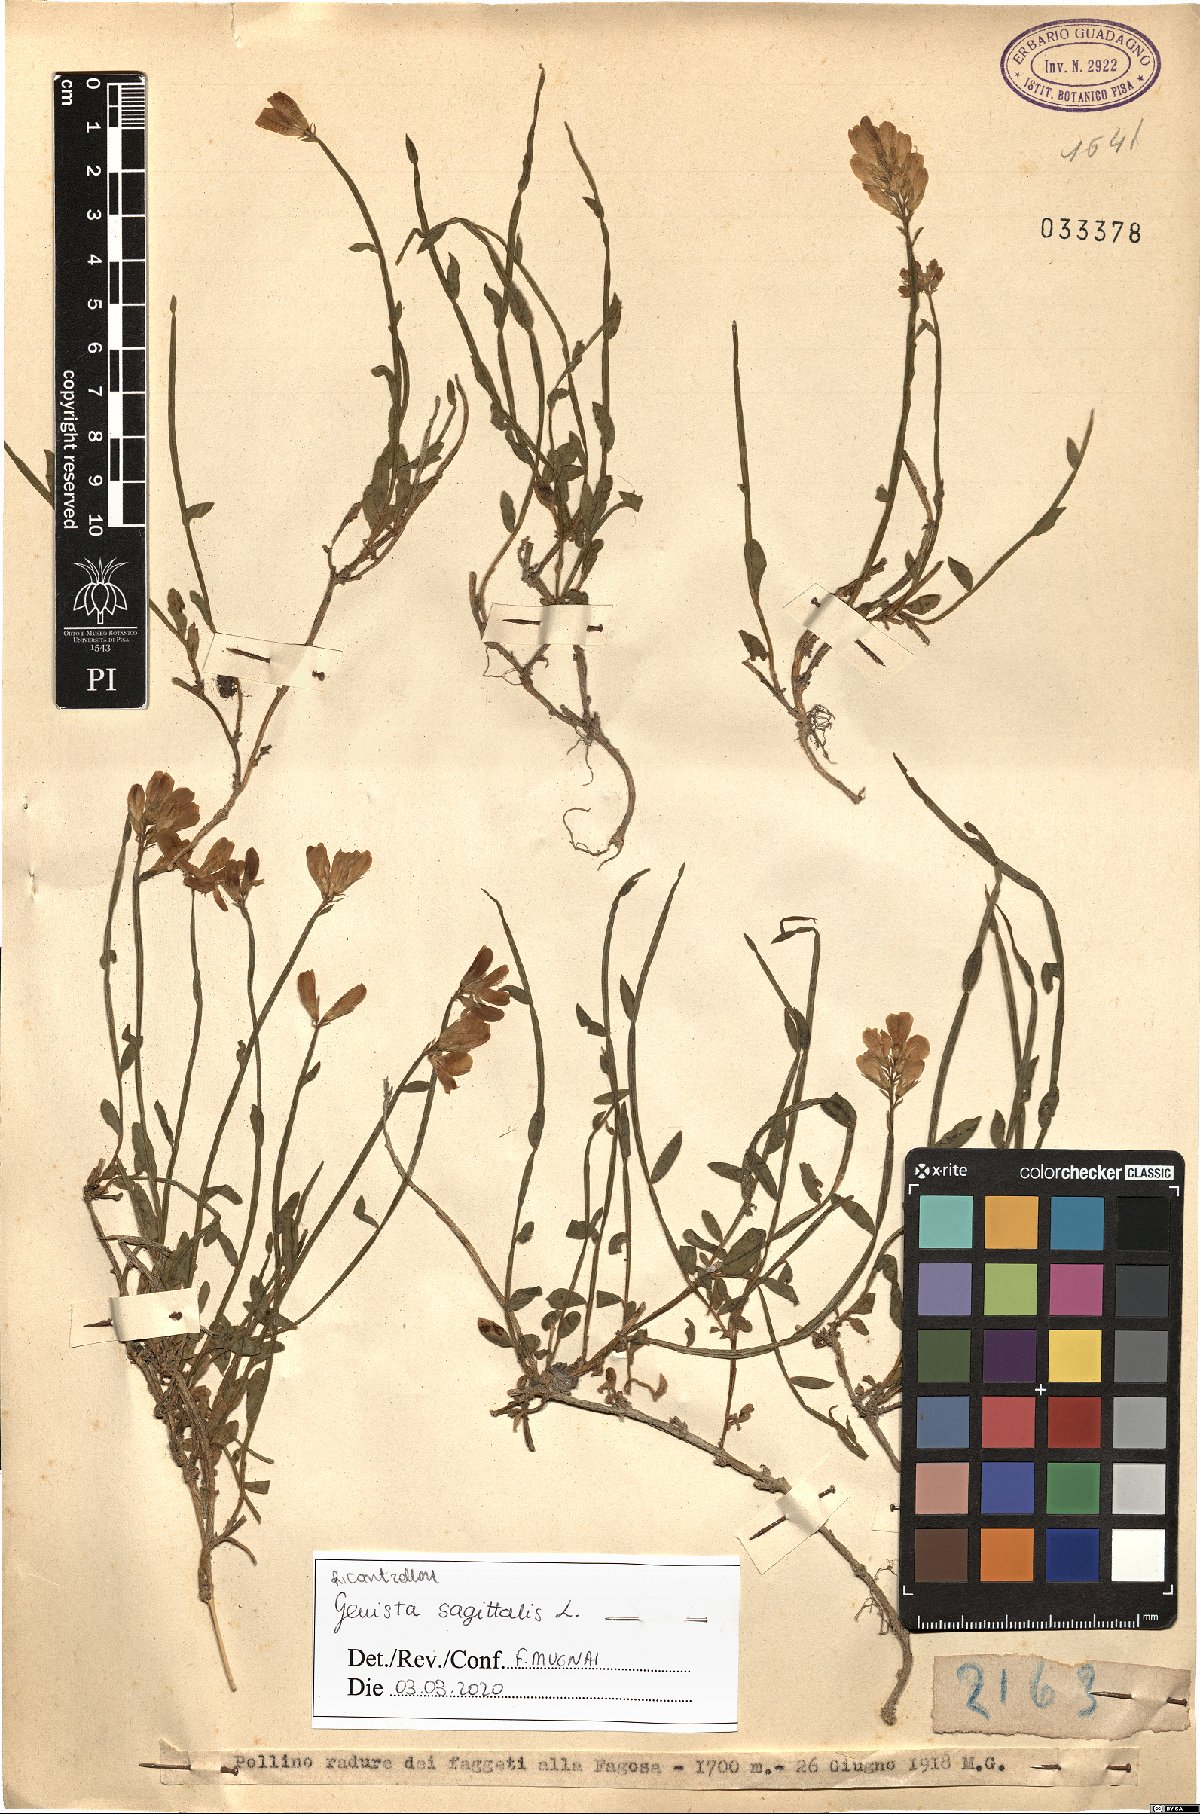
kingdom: Plantae
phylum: Tracheophyta
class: Magnoliopsida
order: Fabales
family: Fabaceae
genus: Genista
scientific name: Genista sagittalis
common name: Winged greenweed
